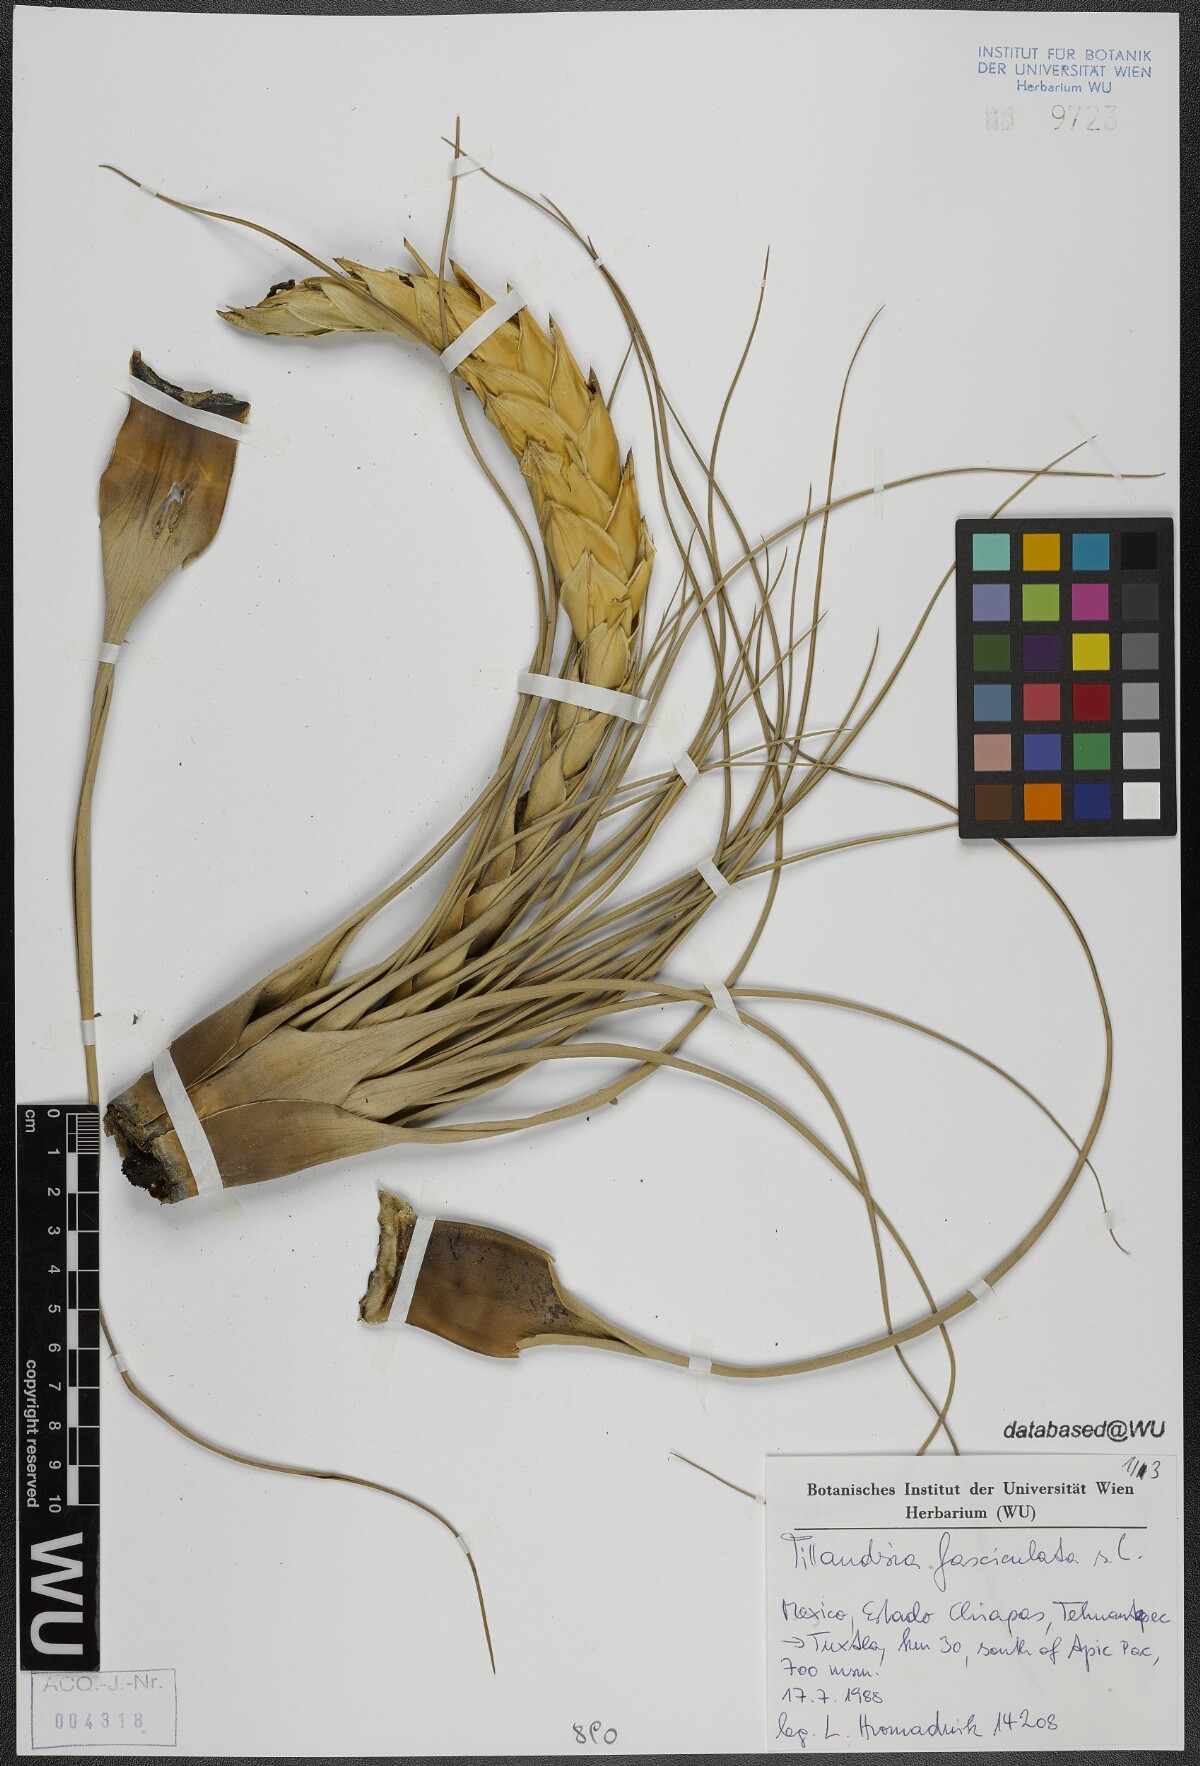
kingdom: Plantae
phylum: Tracheophyta
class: Liliopsida
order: Poales
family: Bromeliaceae
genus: Tillandsia
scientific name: Tillandsia fasciculata
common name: Giant airplant
